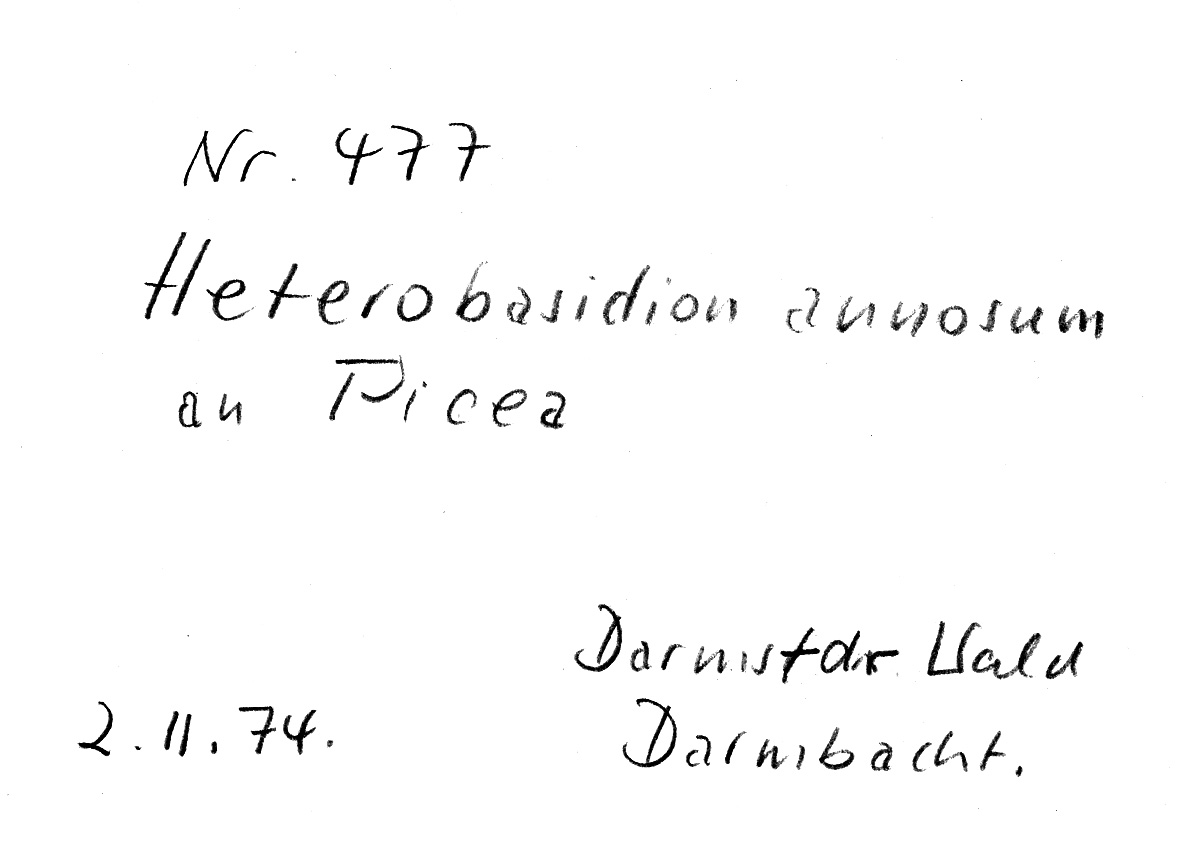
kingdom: Plantae
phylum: Tracheophyta
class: Pinopsida
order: Pinales
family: Pinaceae
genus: Picea
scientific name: Picea
